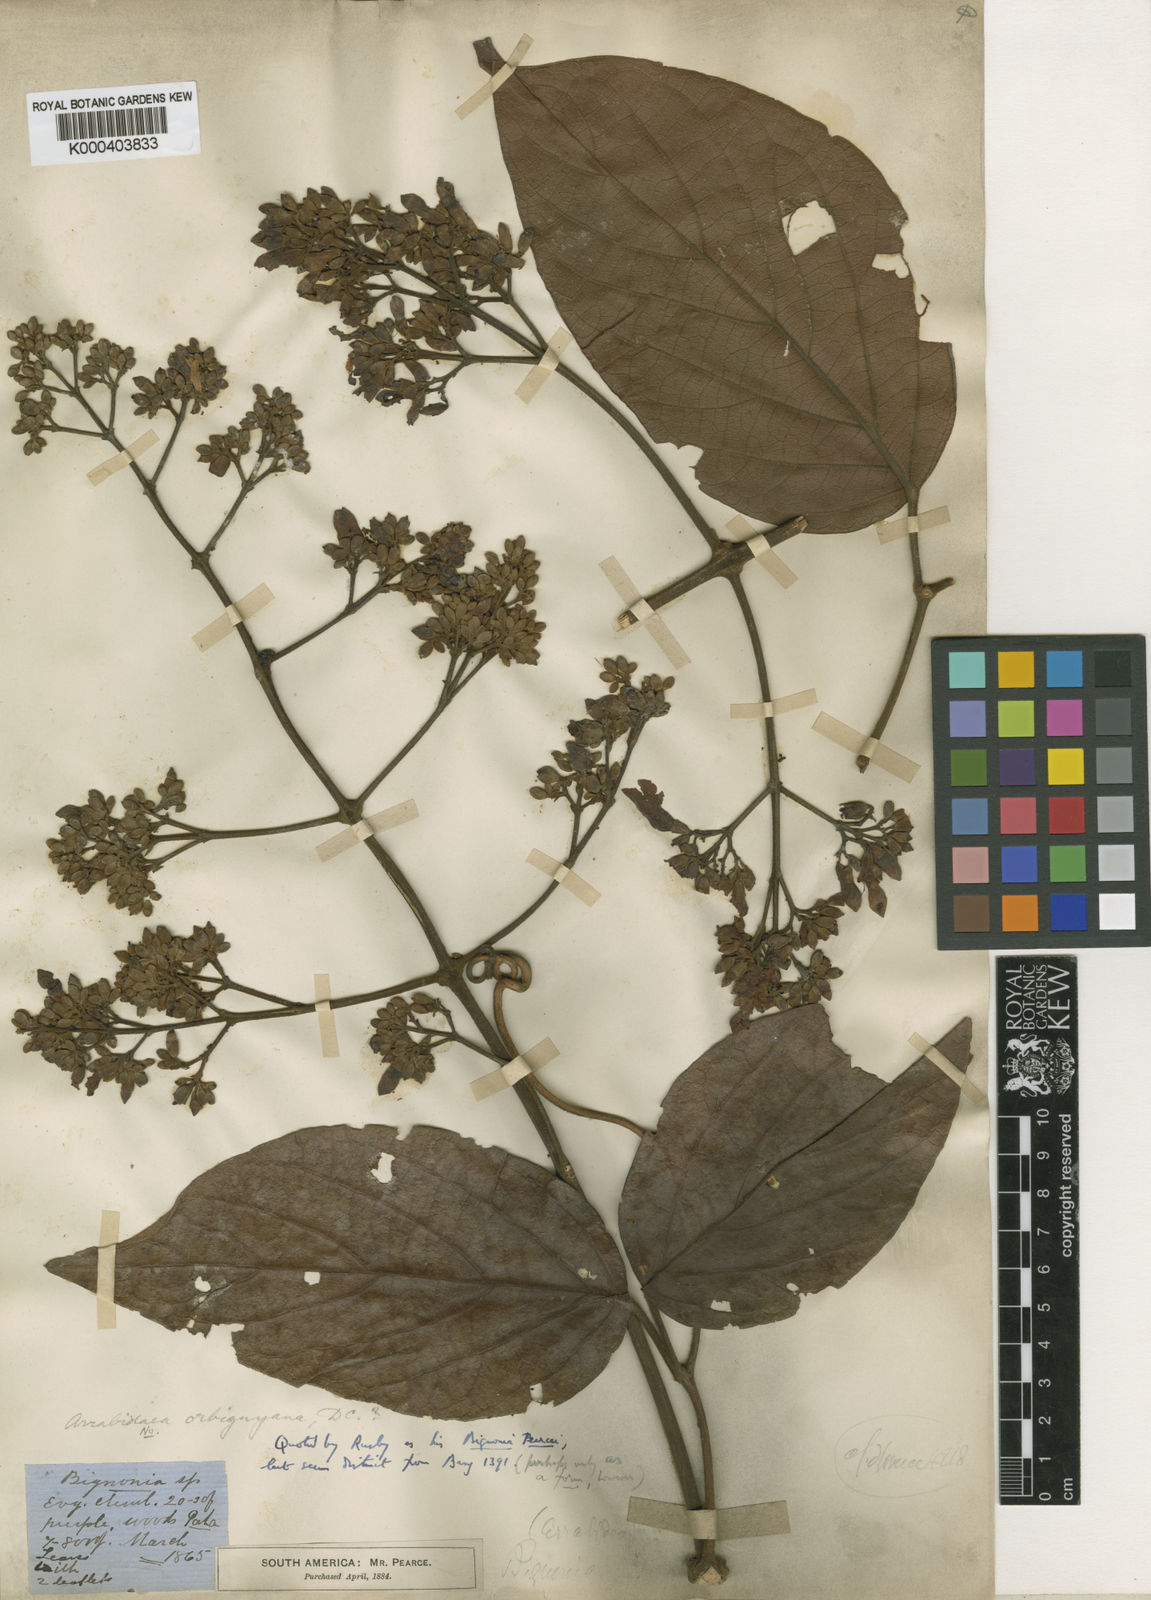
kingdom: Plantae
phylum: Tracheophyta
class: Magnoliopsida
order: Lamiales
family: Bignoniaceae
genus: Fridericia
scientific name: Fridericia arthrerion
